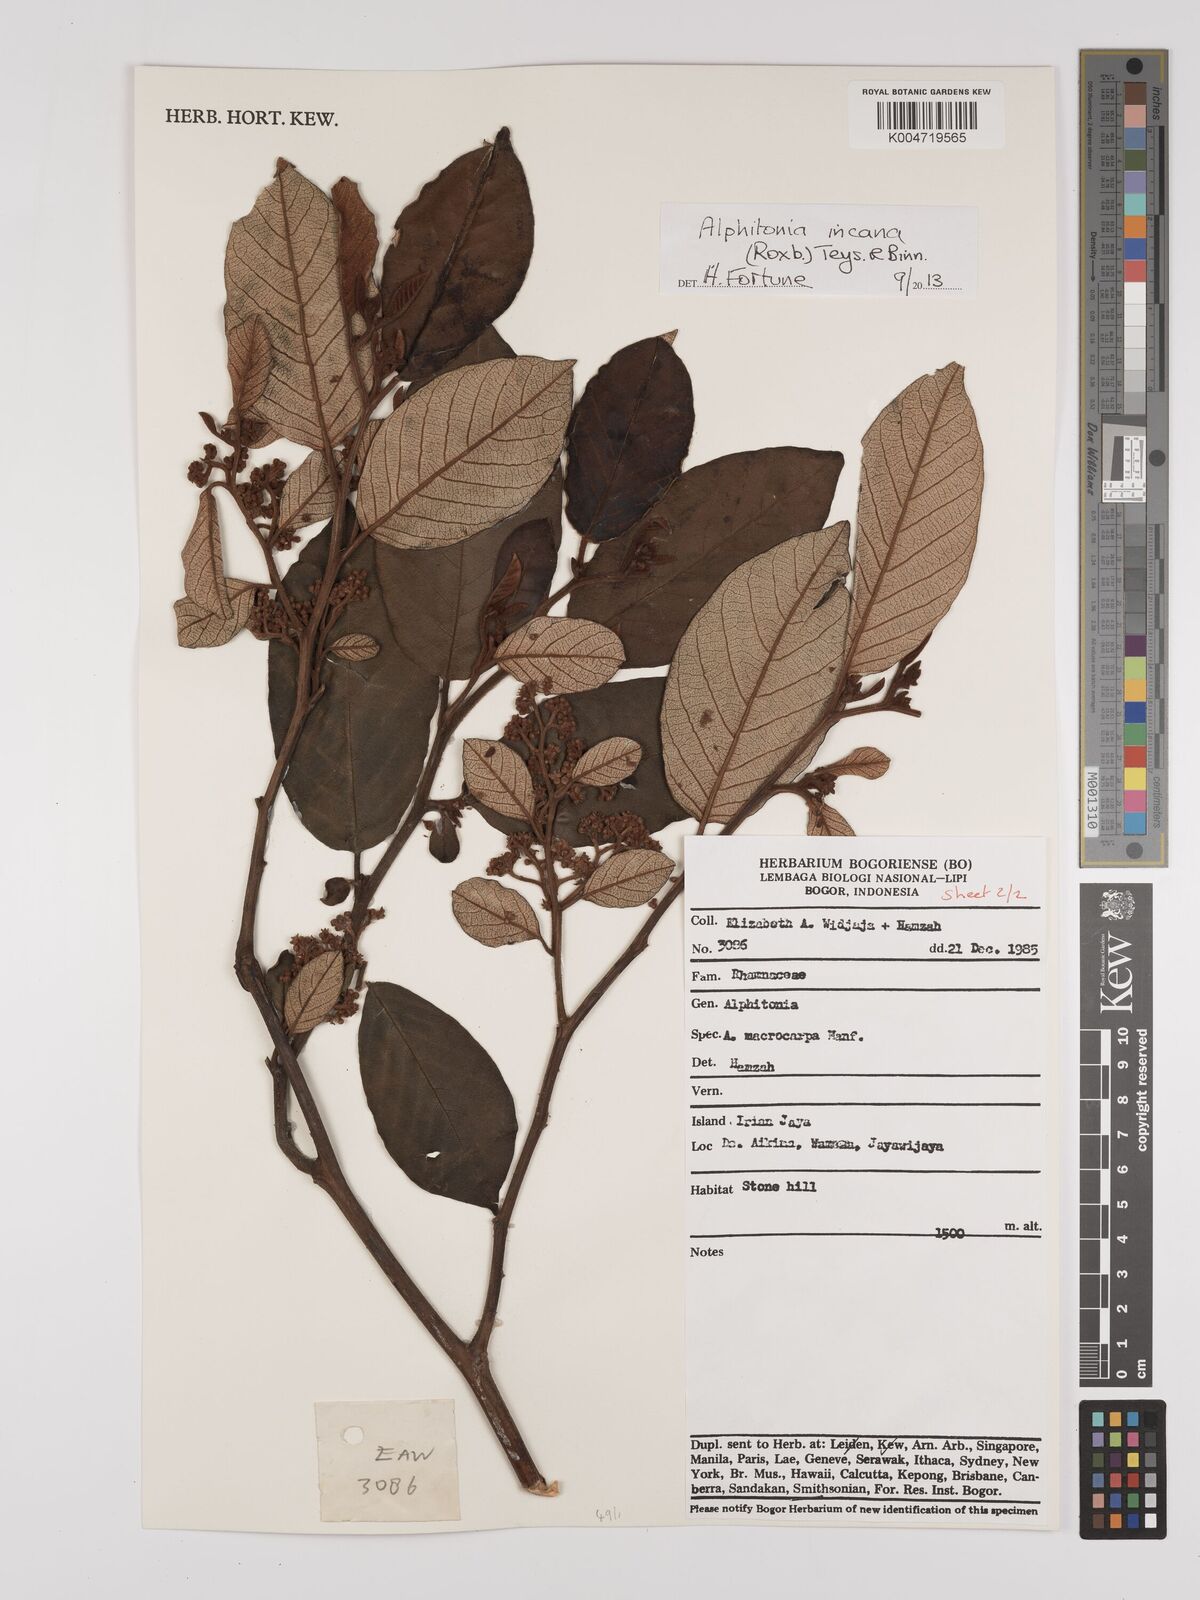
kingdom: Plantae
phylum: Tracheophyta
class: Magnoliopsida
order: Rosales
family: Rhamnaceae
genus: Alphitonia
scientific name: Alphitonia incana
